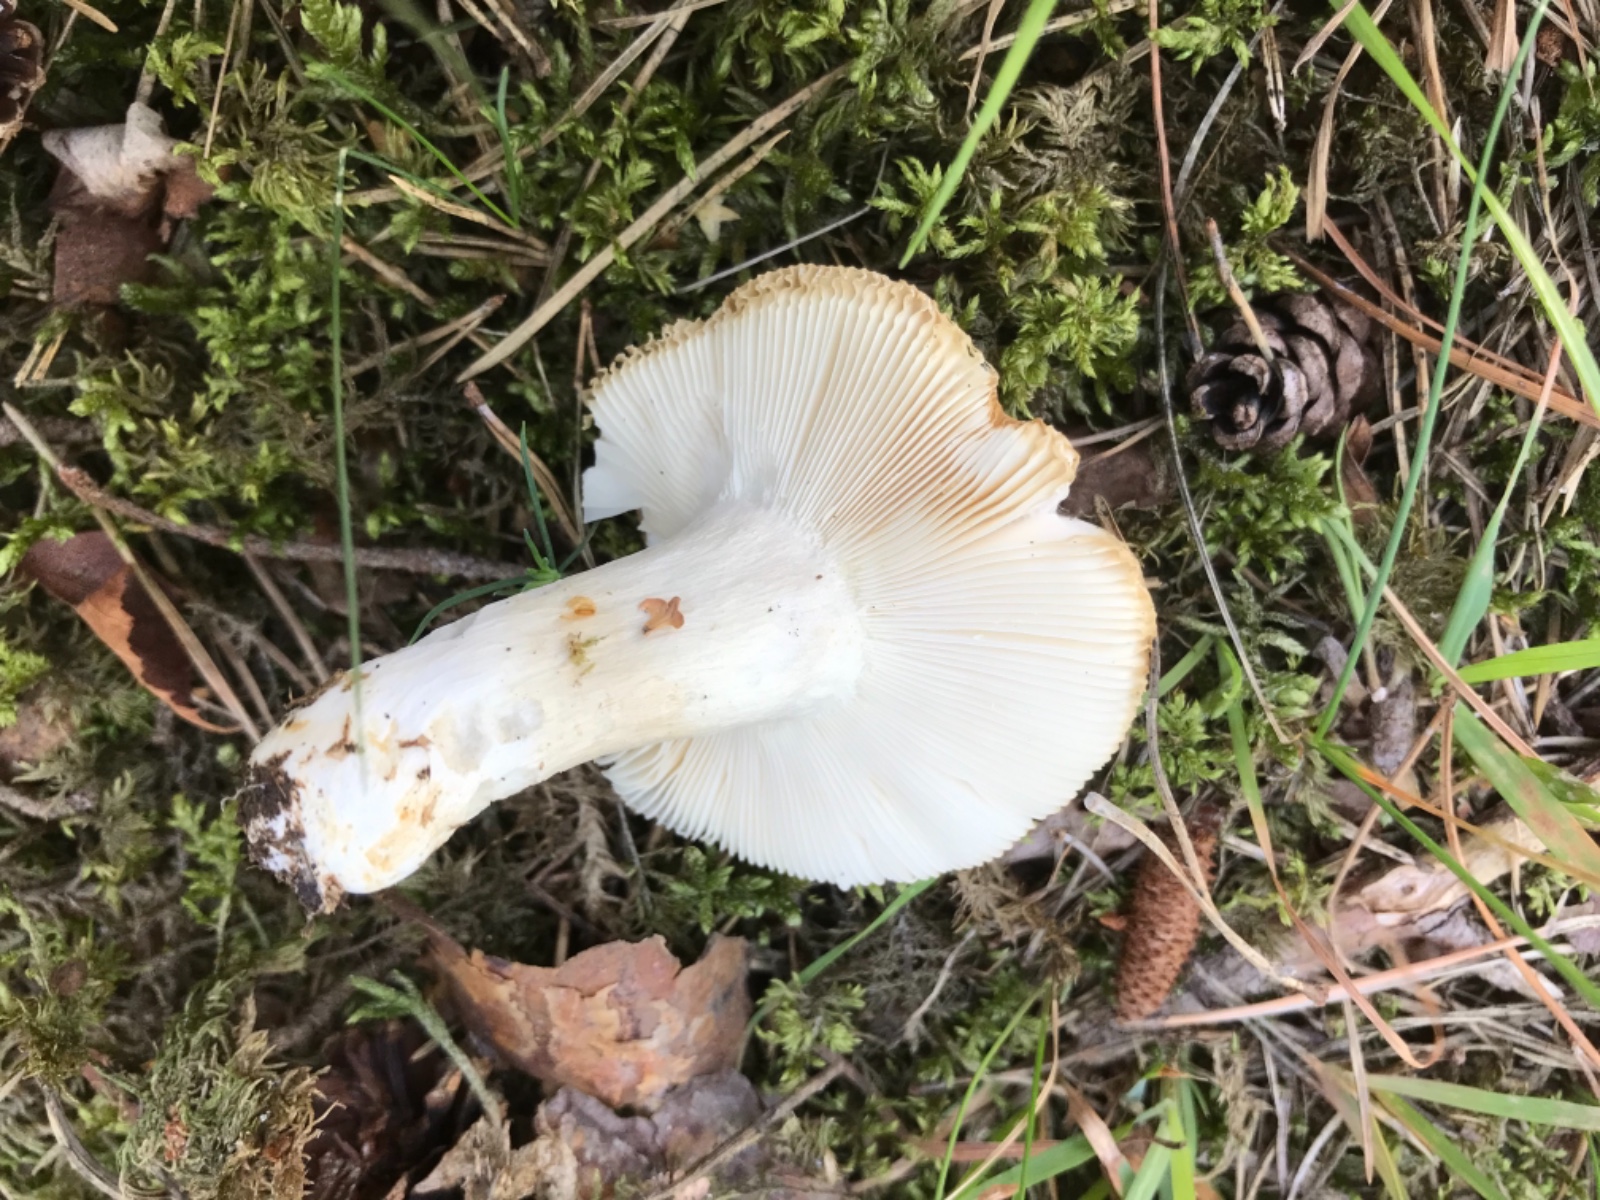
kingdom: Fungi
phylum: Basidiomycota
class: Agaricomycetes
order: Russulales
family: Russulaceae
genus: Russula
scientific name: Russula
